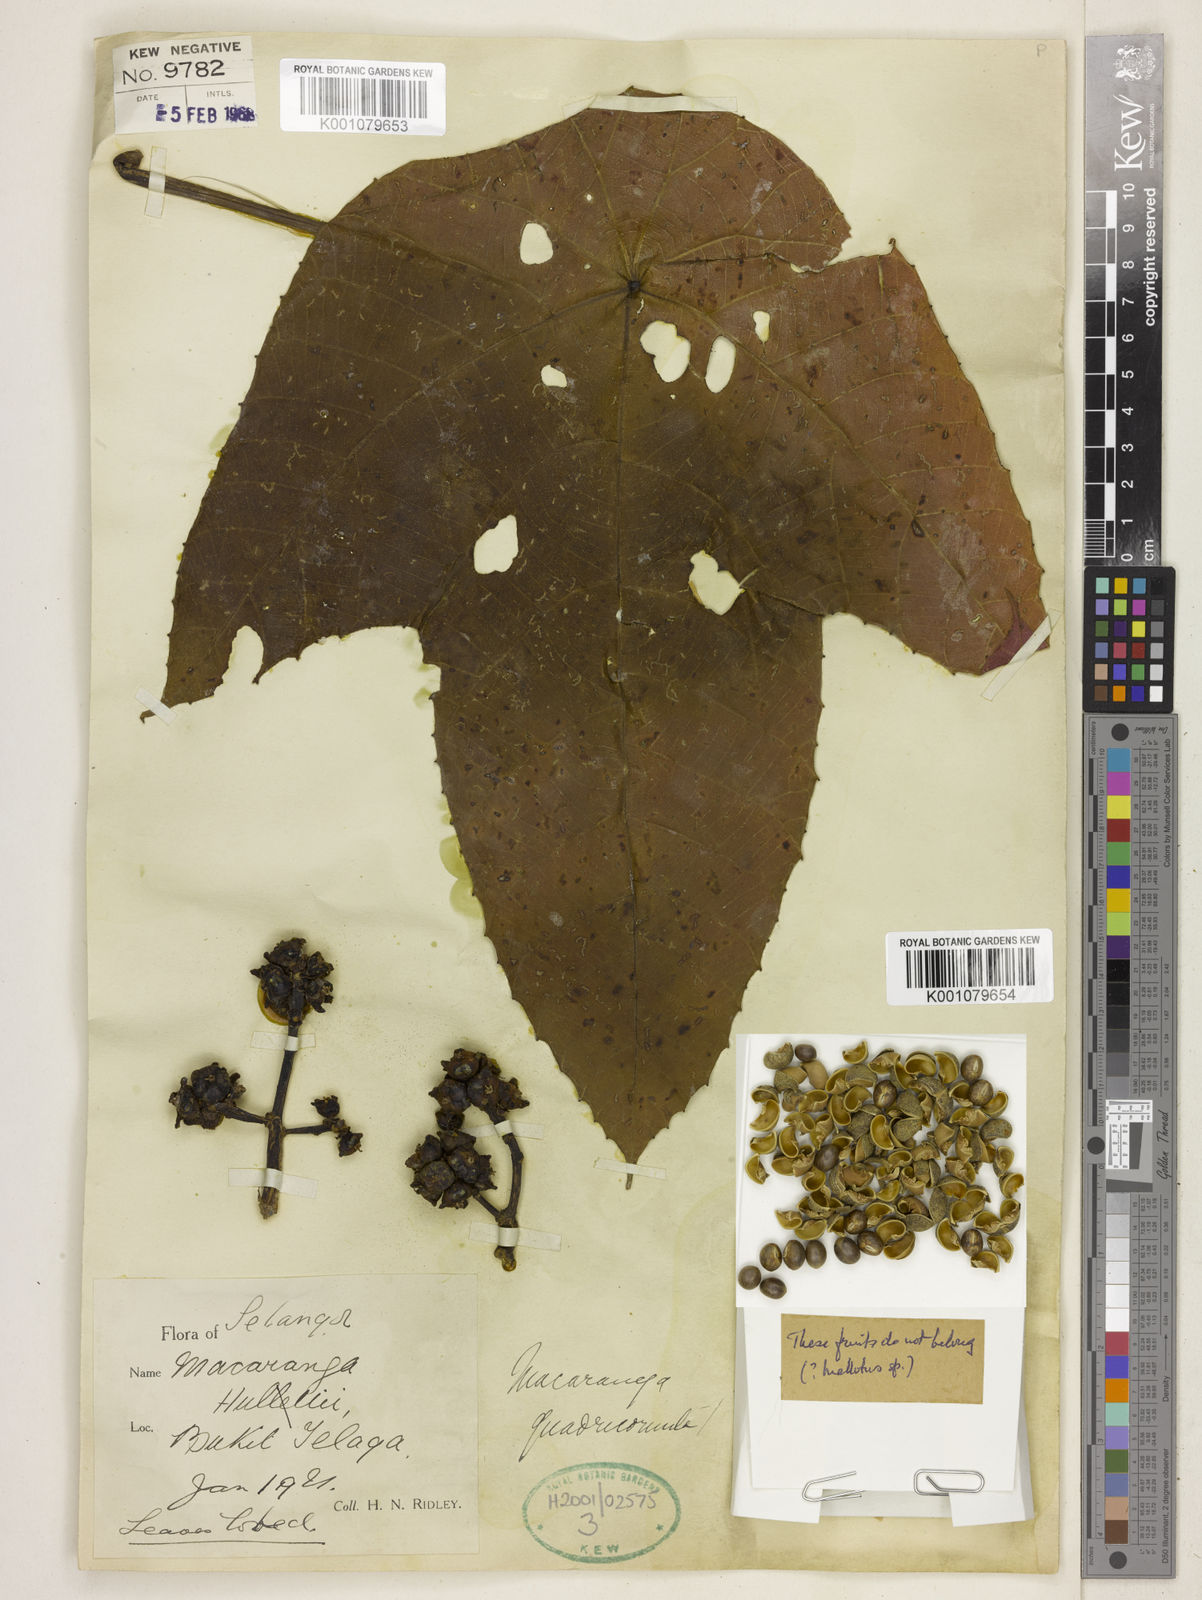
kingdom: Plantae
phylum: Tracheophyta
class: Magnoliopsida
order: Malpighiales
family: Euphorbiaceae
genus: Macaranga
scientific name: Macaranga triloba
